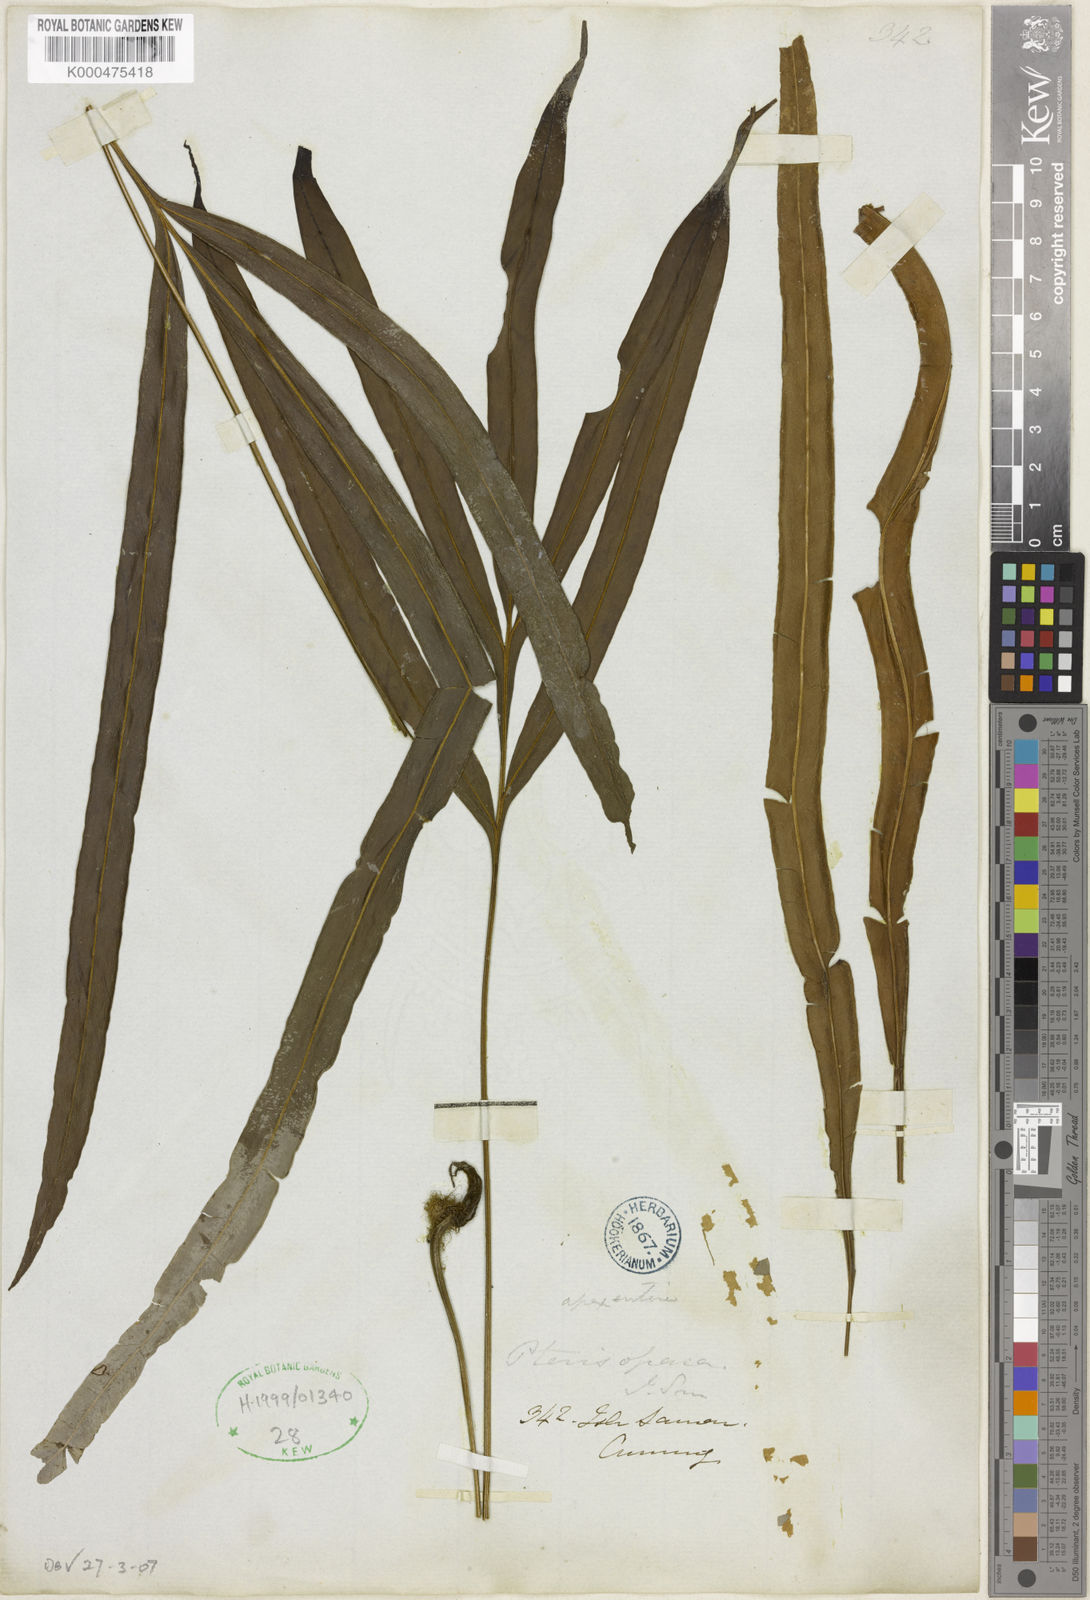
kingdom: Plantae
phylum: Tracheophyta
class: Polypodiopsida
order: Polypodiales
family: Pteridaceae
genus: Pteris
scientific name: Pteris
